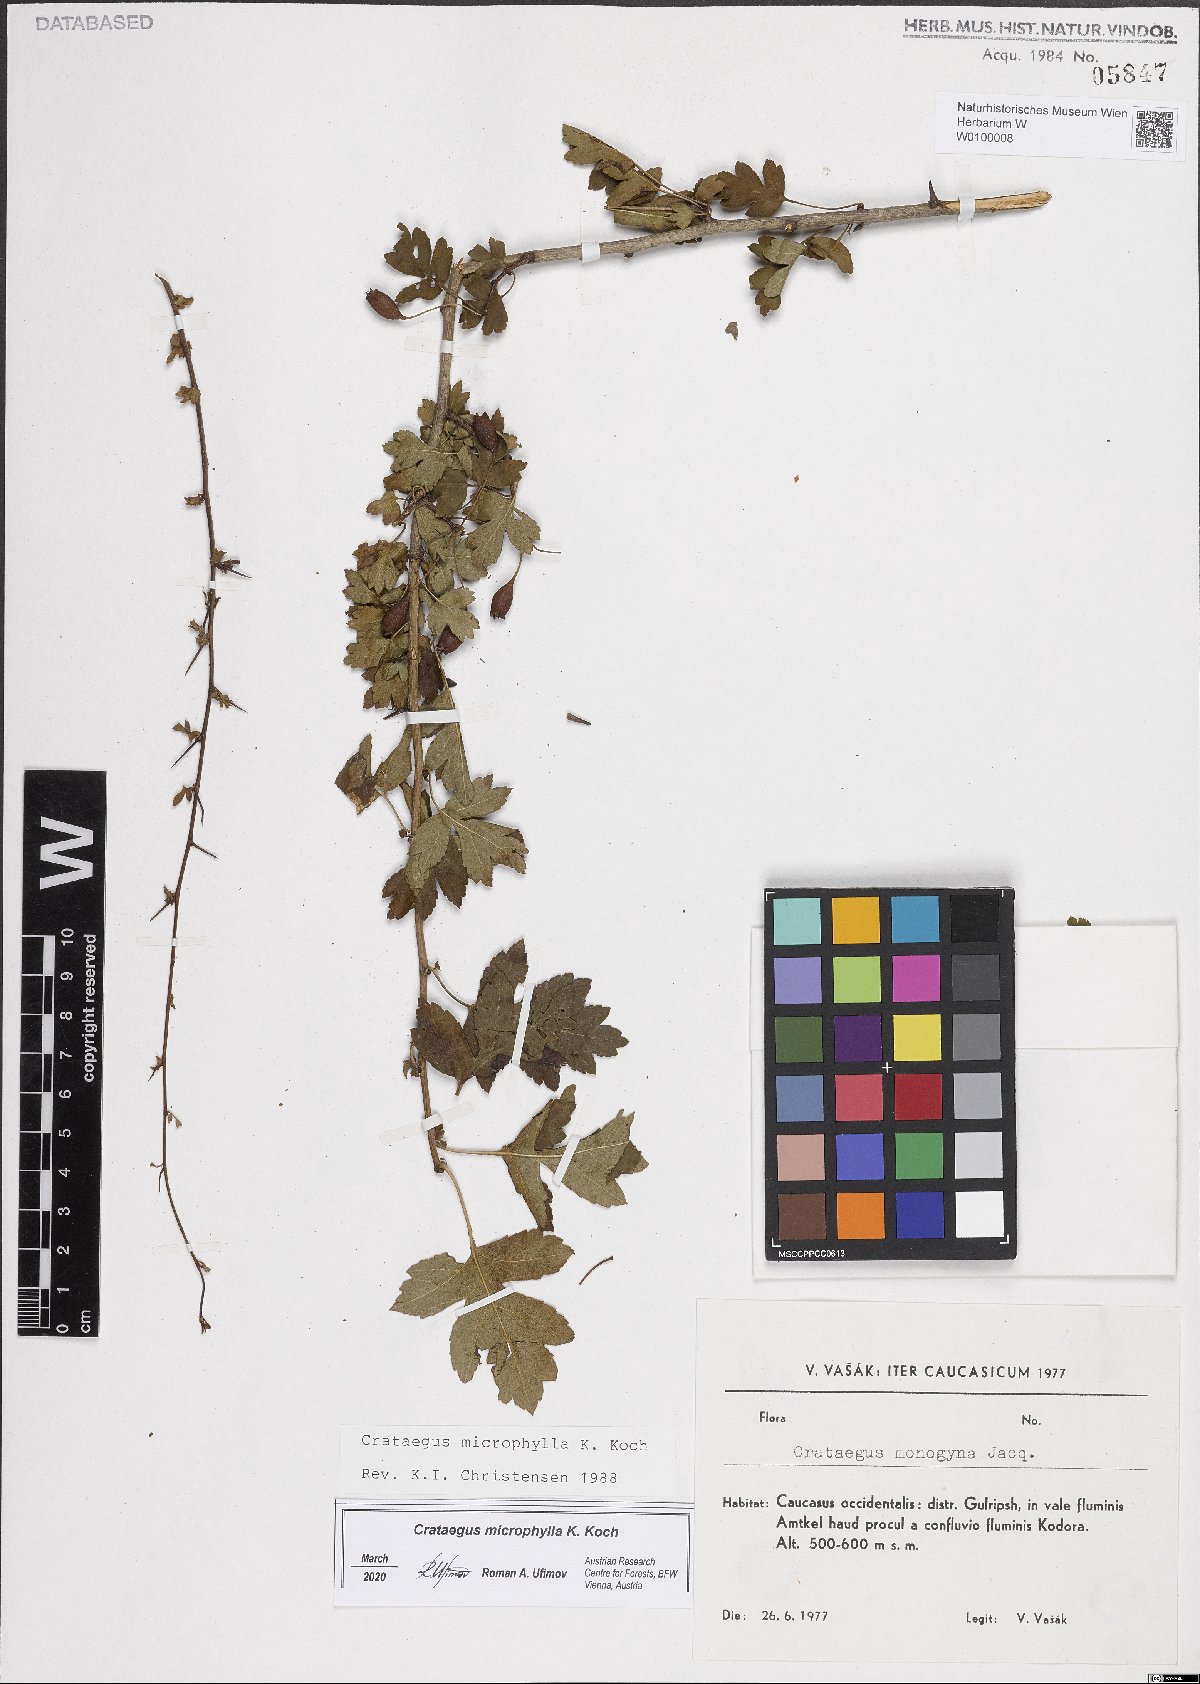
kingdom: Plantae
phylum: Tracheophyta
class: Magnoliopsida
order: Rosales
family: Rosaceae
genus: Crataegus
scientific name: Crataegus microphylla
